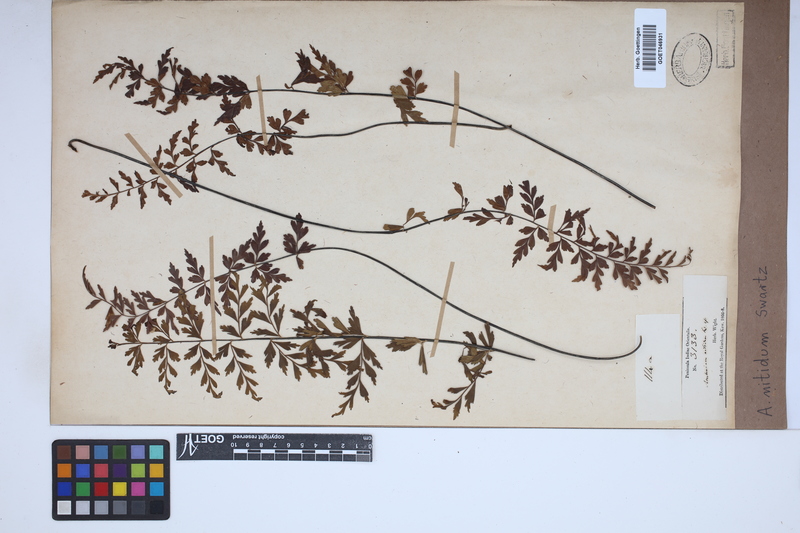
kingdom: Plantae
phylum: Tracheophyta
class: Polypodiopsida
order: Polypodiales
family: Aspleniaceae
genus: Asplenium
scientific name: Asplenium nitidum
